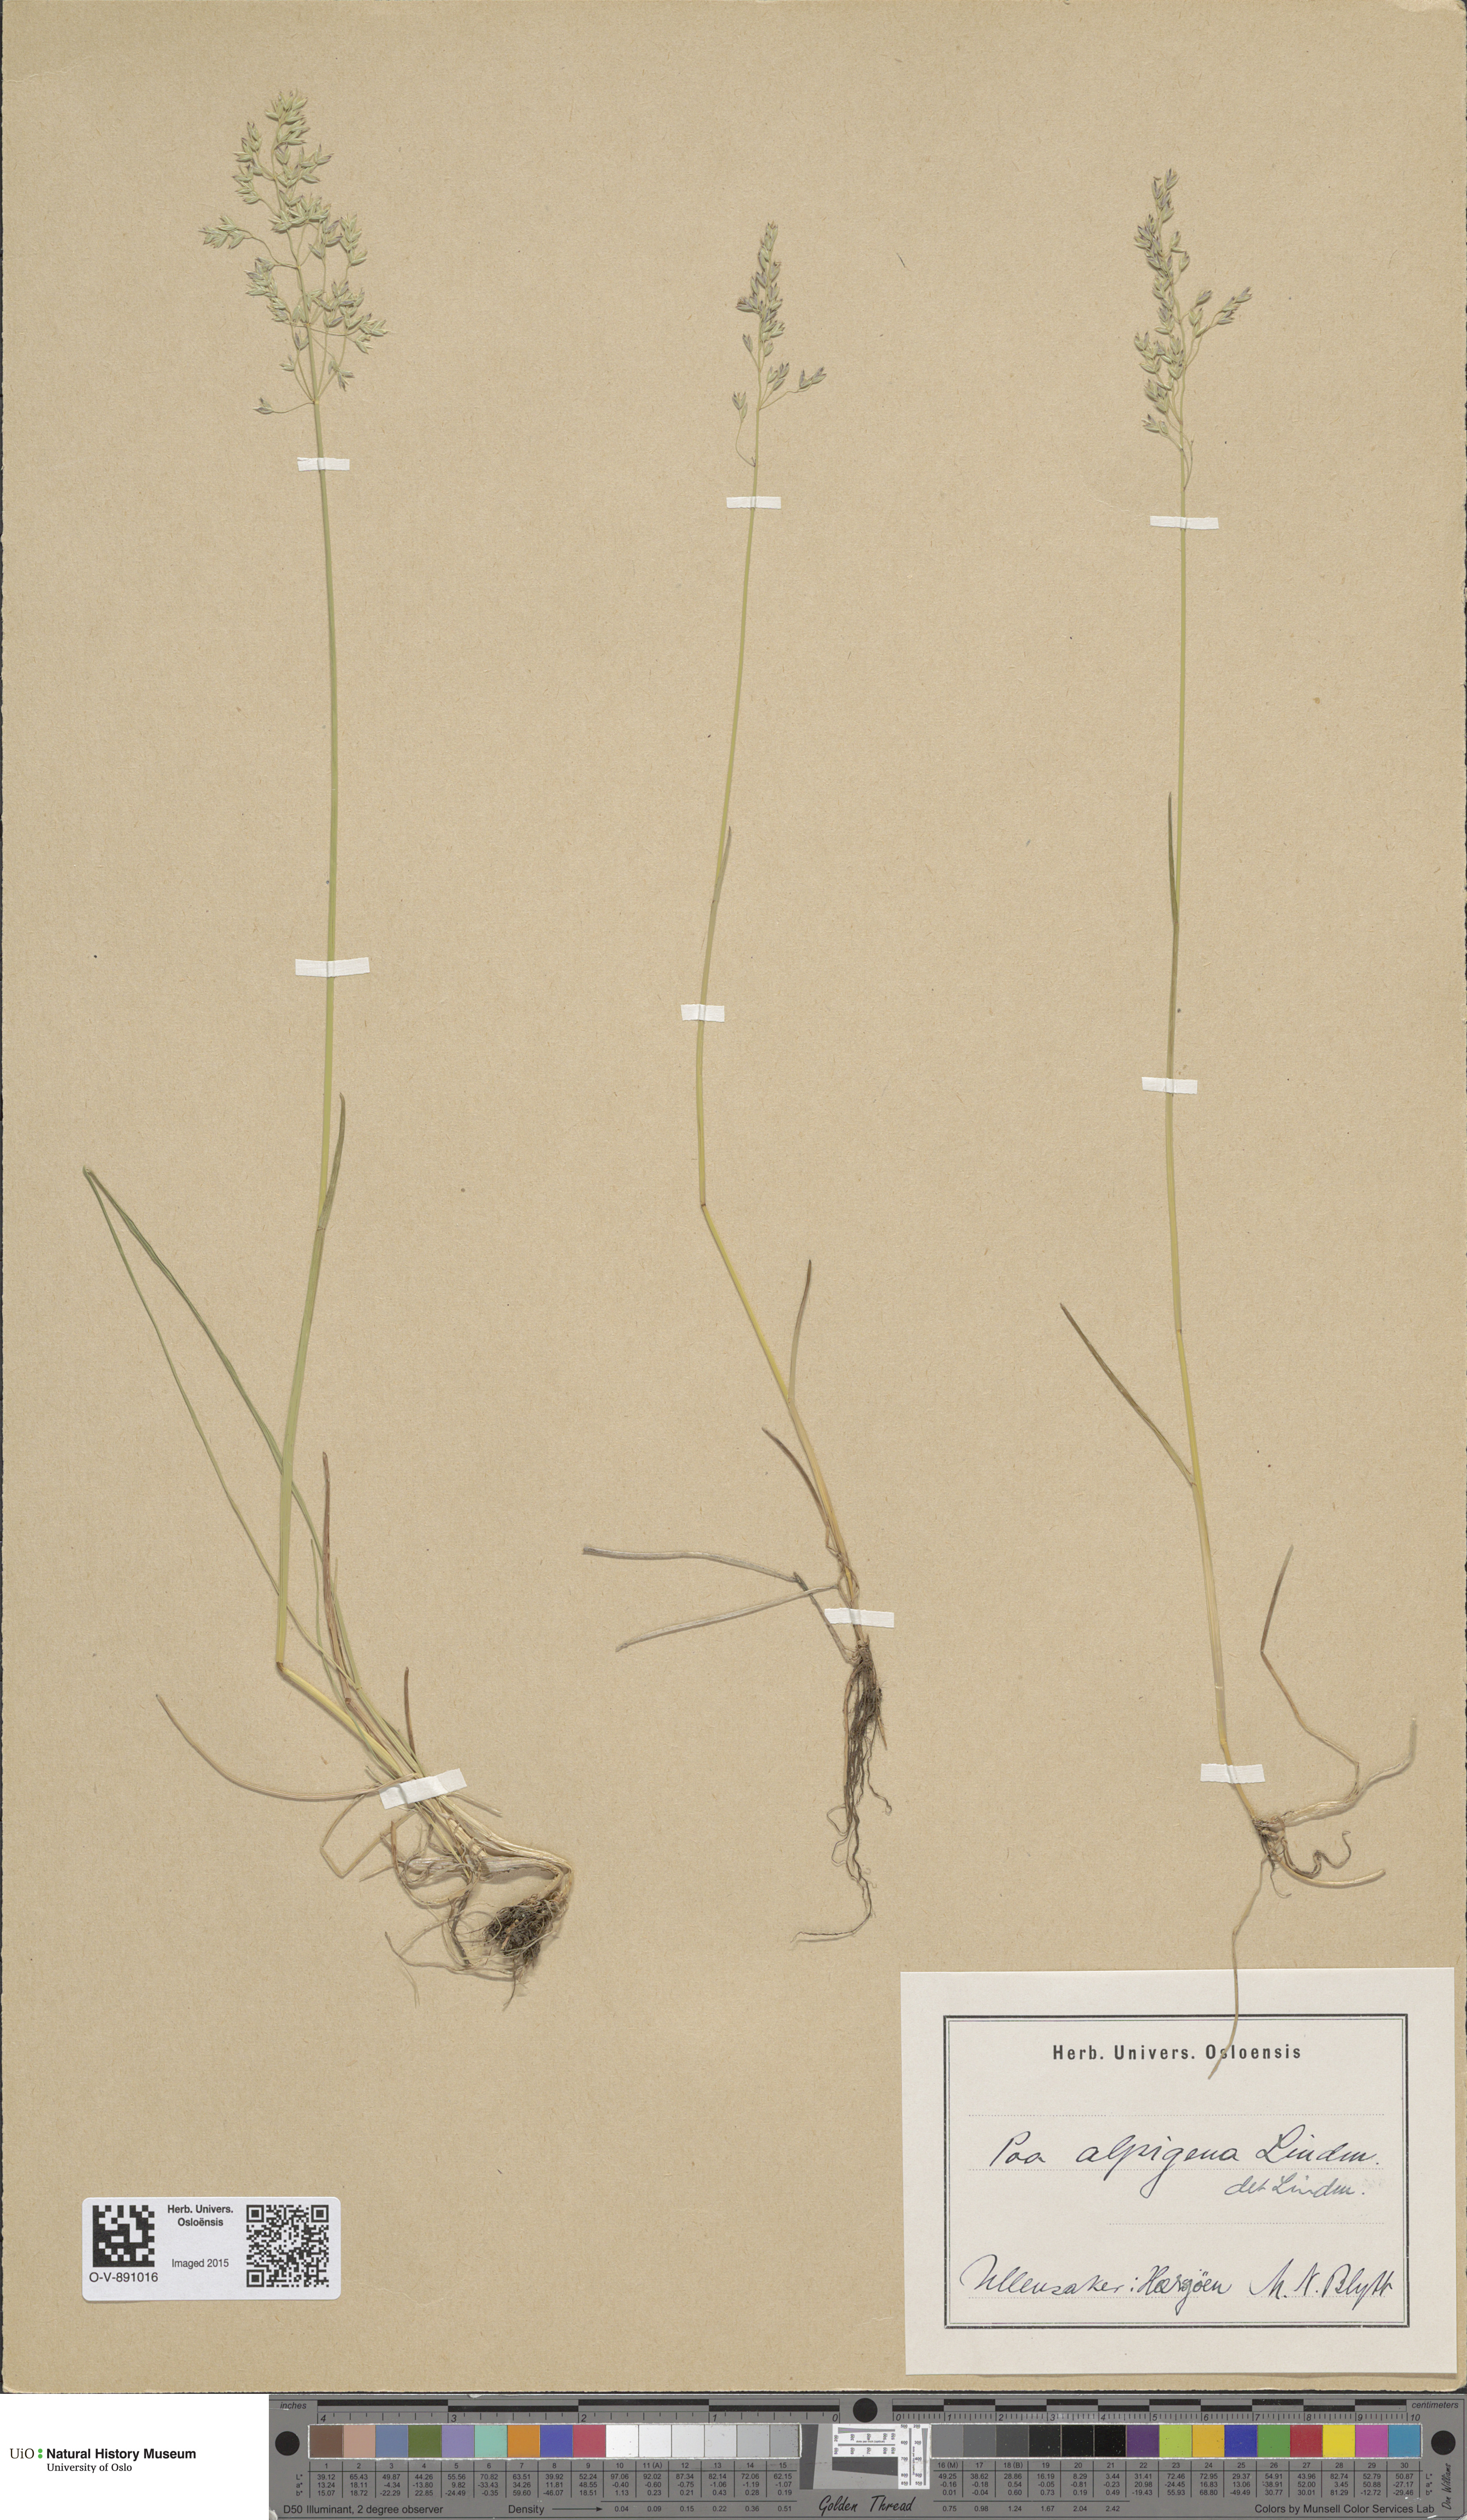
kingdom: Plantae
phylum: Tracheophyta
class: Liliopsida
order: Poales
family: Poaceae
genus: Poa
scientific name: Poa alpigena
